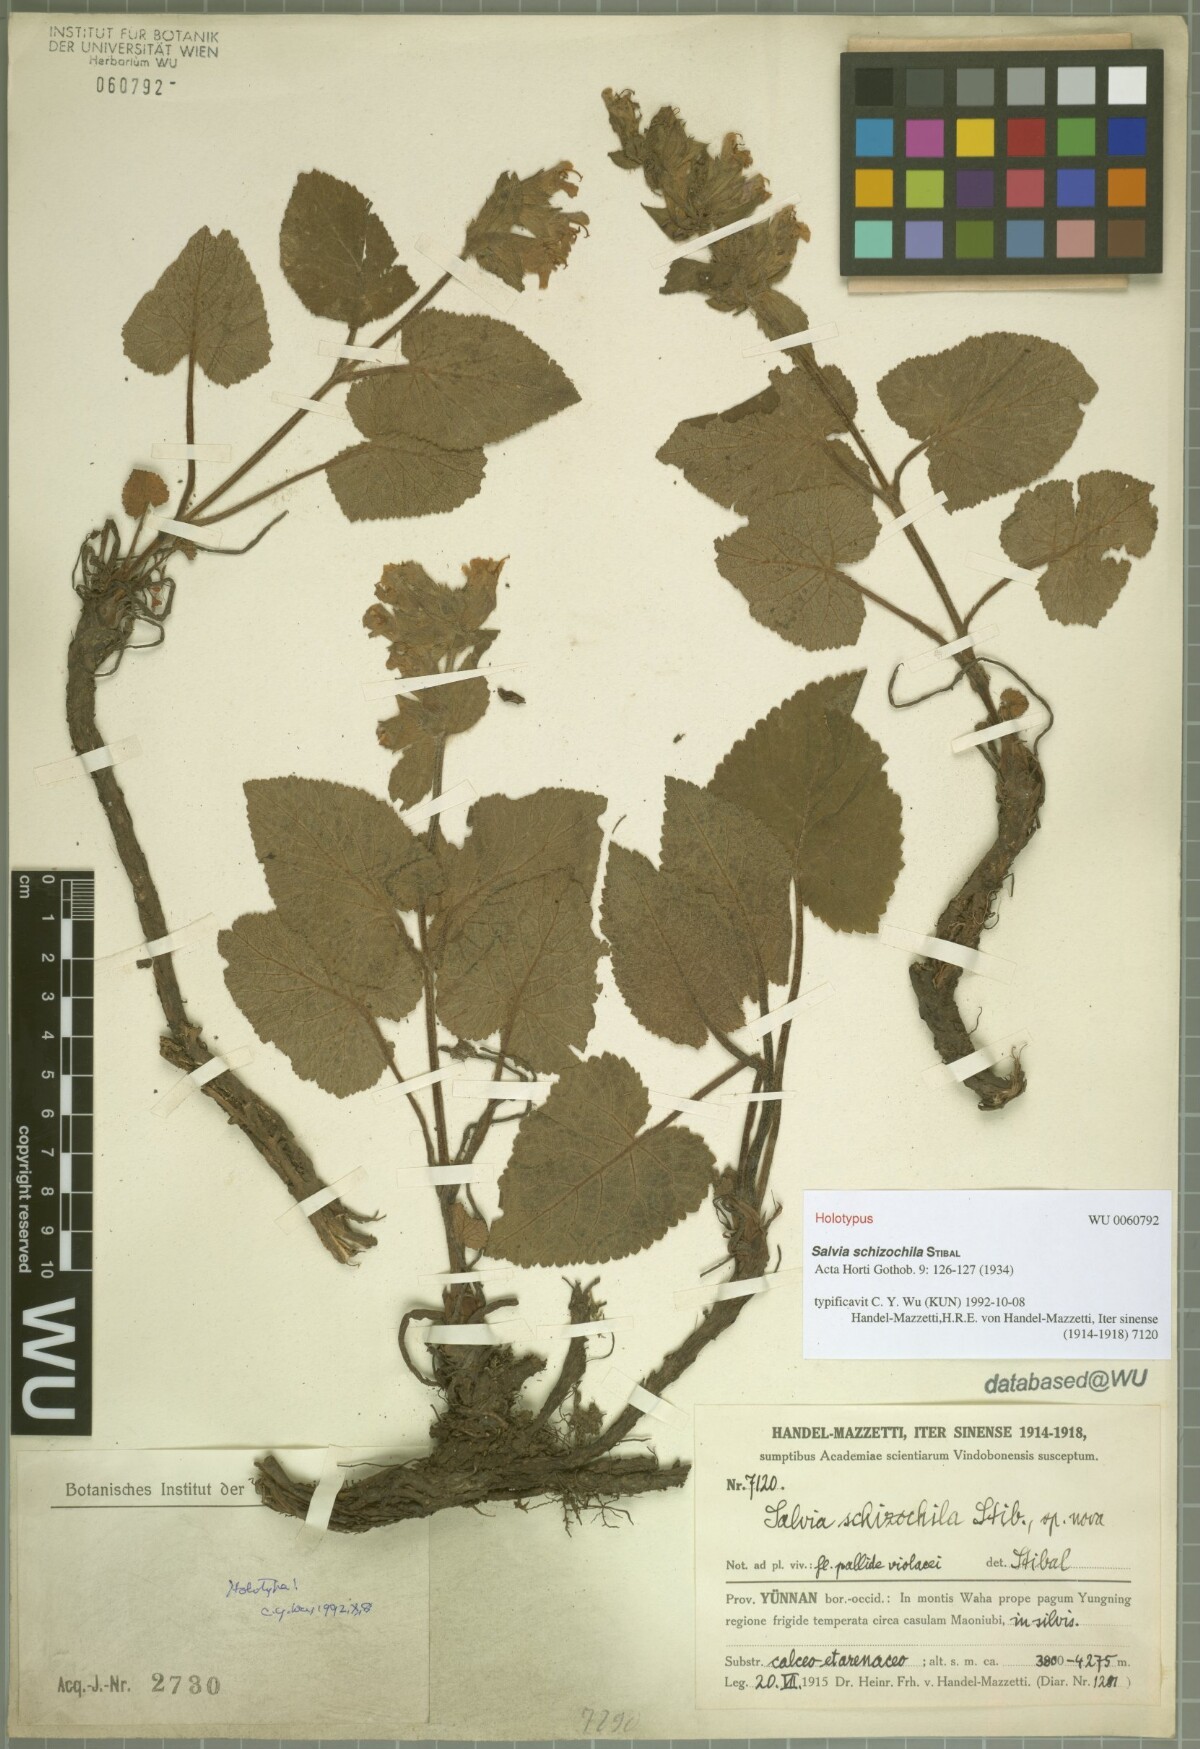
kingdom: Plantae
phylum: Tracheophyta
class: Magnoliopsida
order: Lamiales
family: Lamiaceae
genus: Salvia
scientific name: Salvia schizochila
